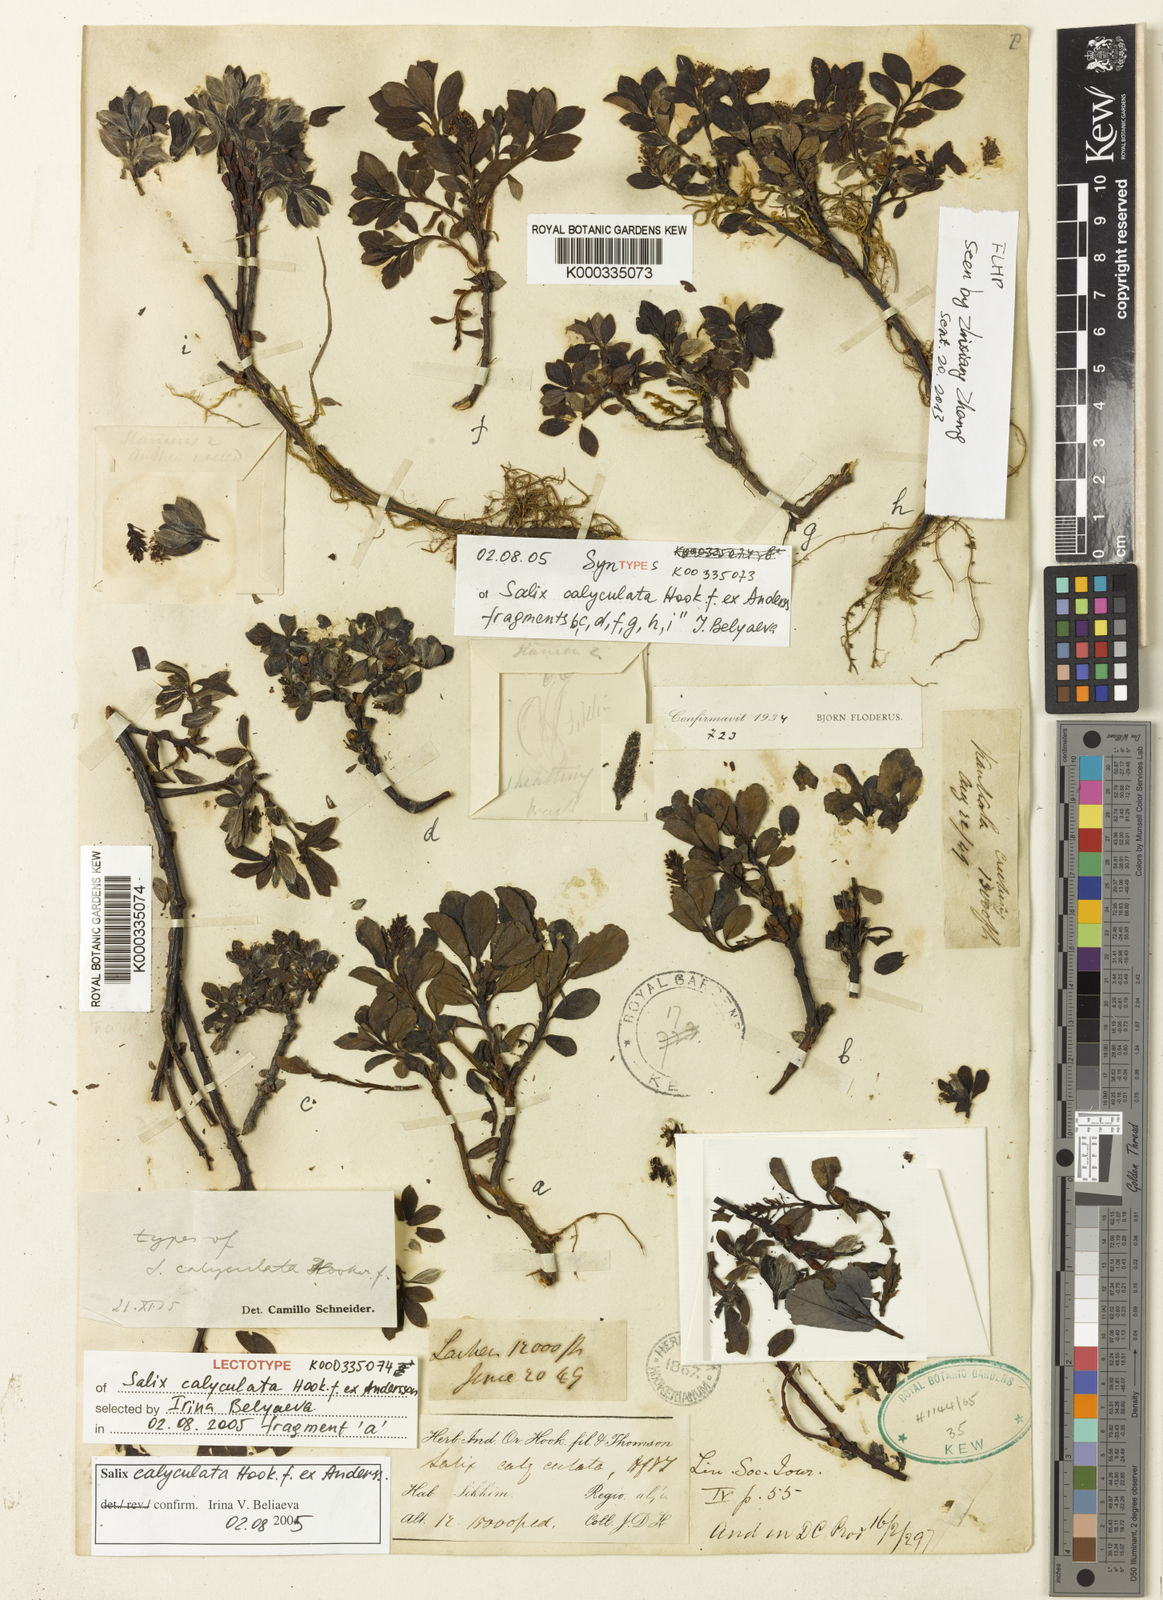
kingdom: Plantae
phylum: Tracheophyta
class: Magnoliopsida
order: Malpighiales
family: Salicaceae
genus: Salix
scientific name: Salix calyculata
